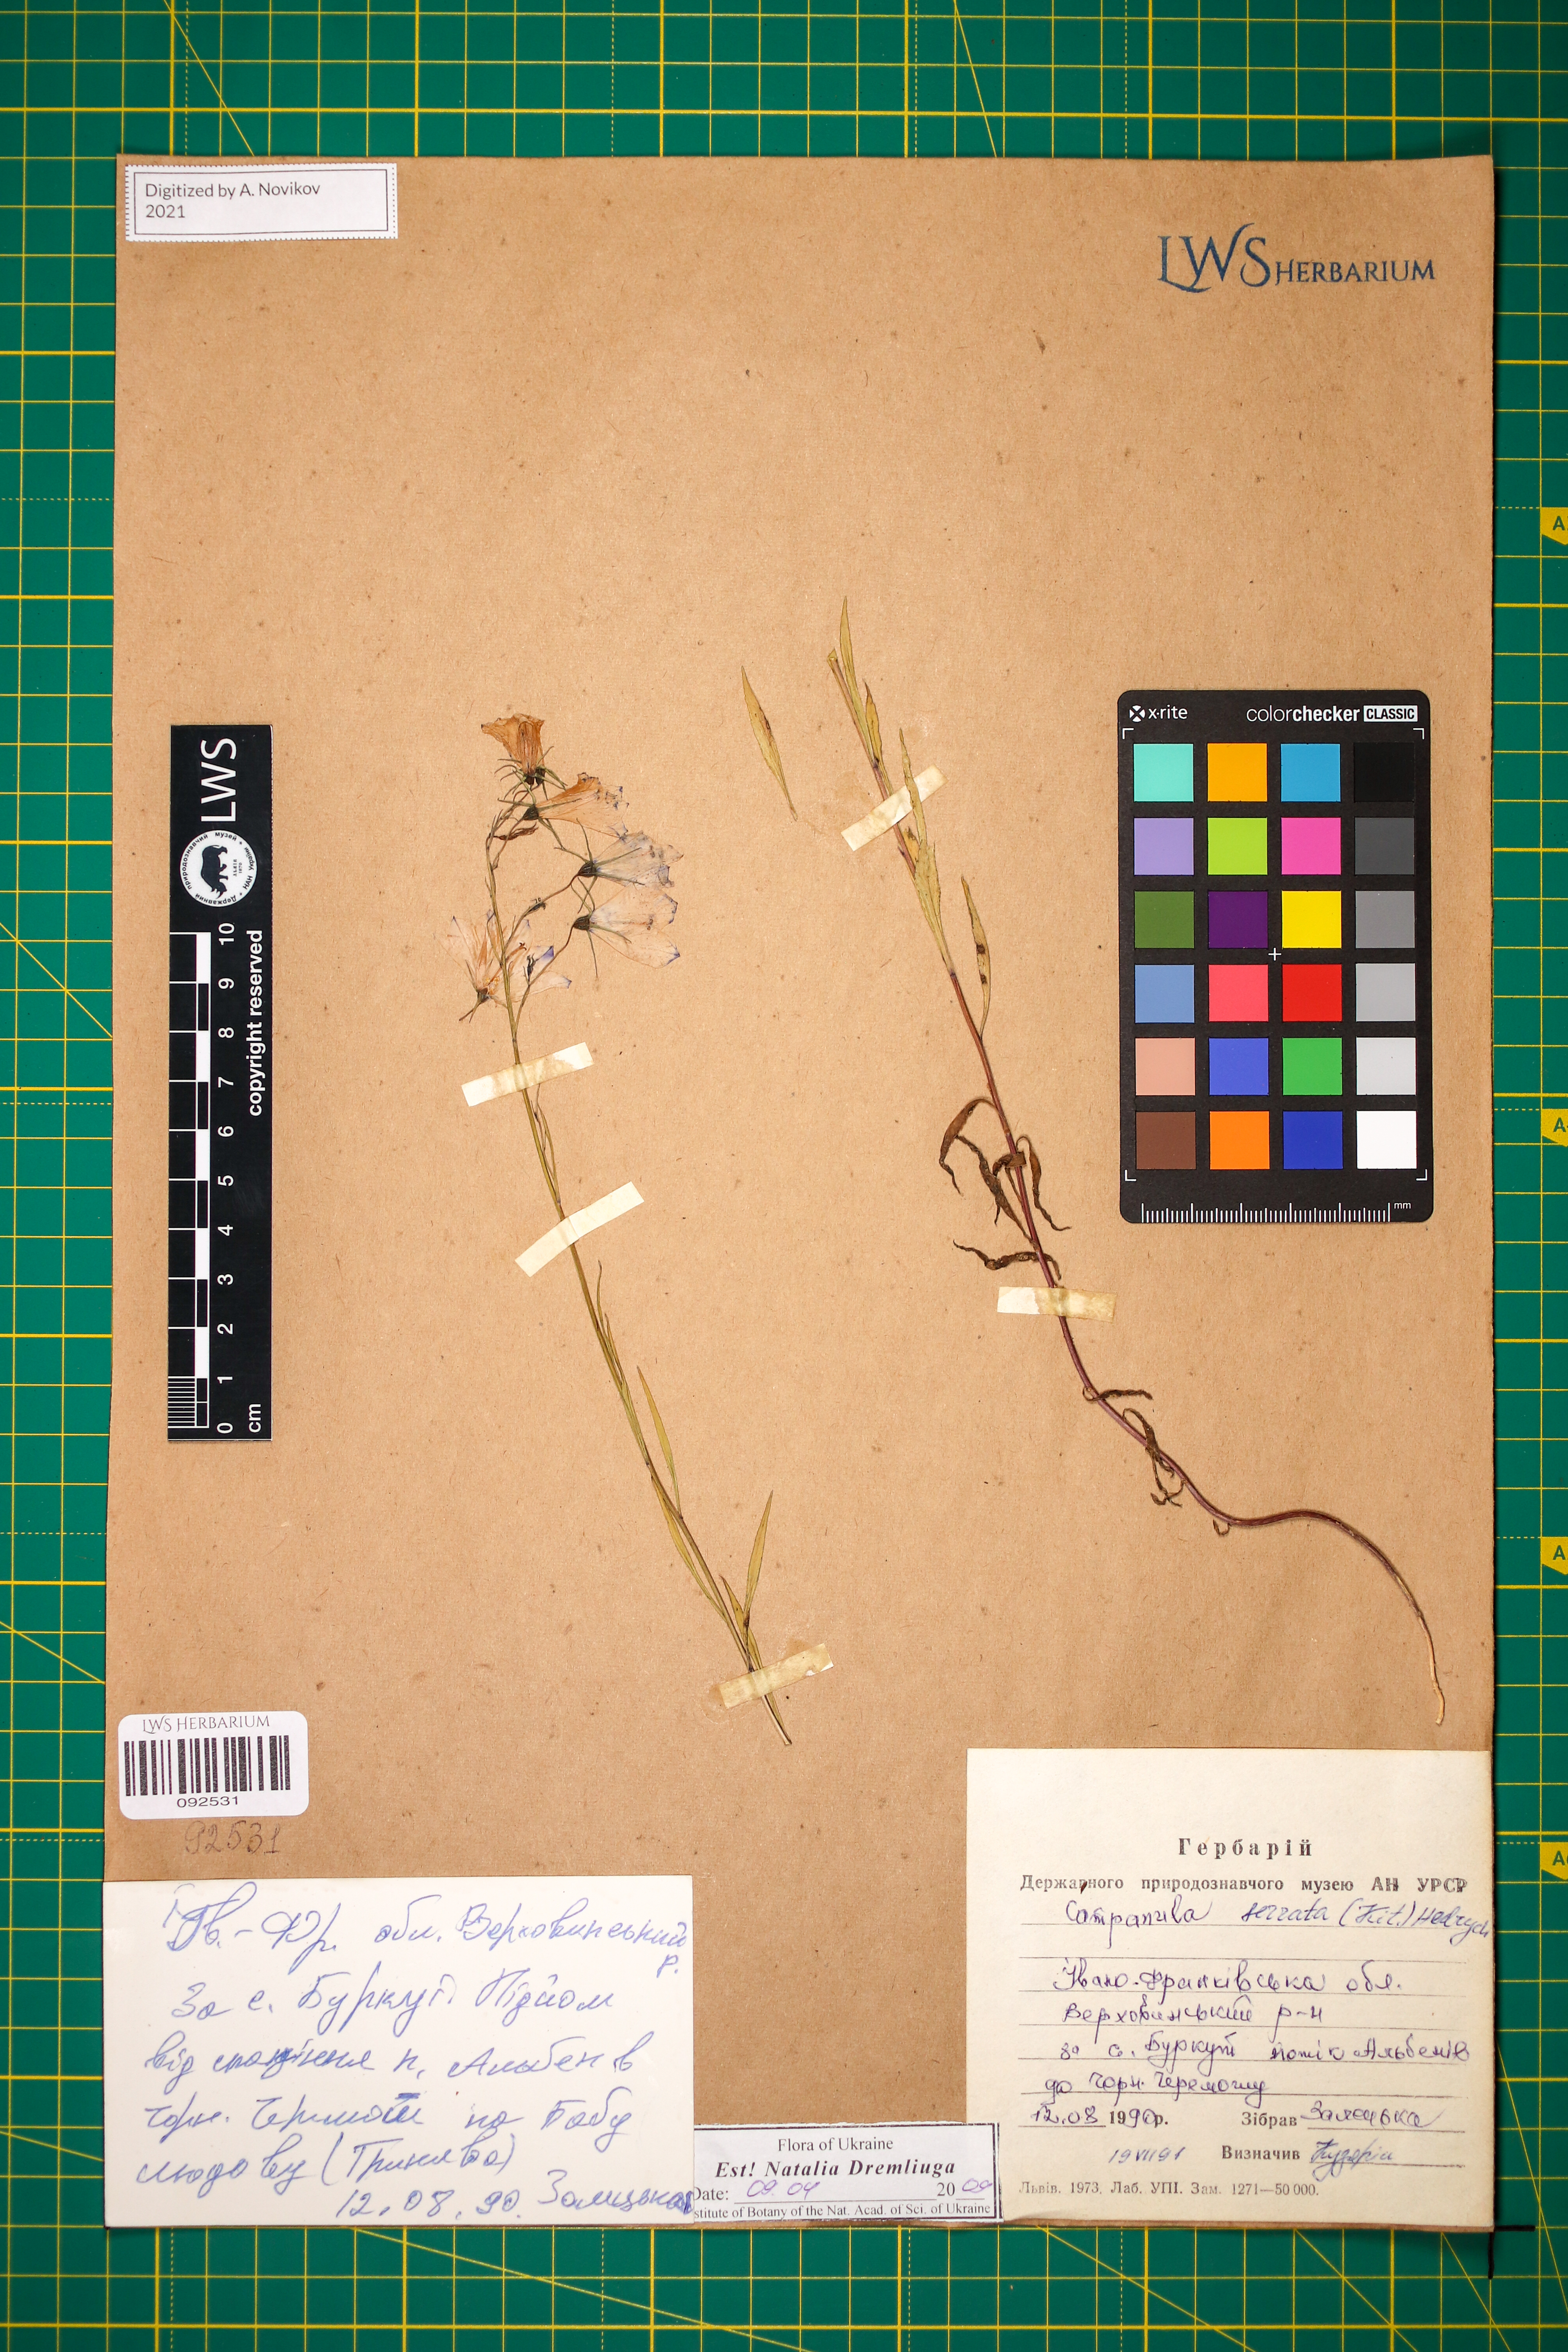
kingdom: Plantae
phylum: Tracheophyta
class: Magnoliopsida
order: Asterales
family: Campanulaceae
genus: Campanula
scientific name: Campanula serrata
